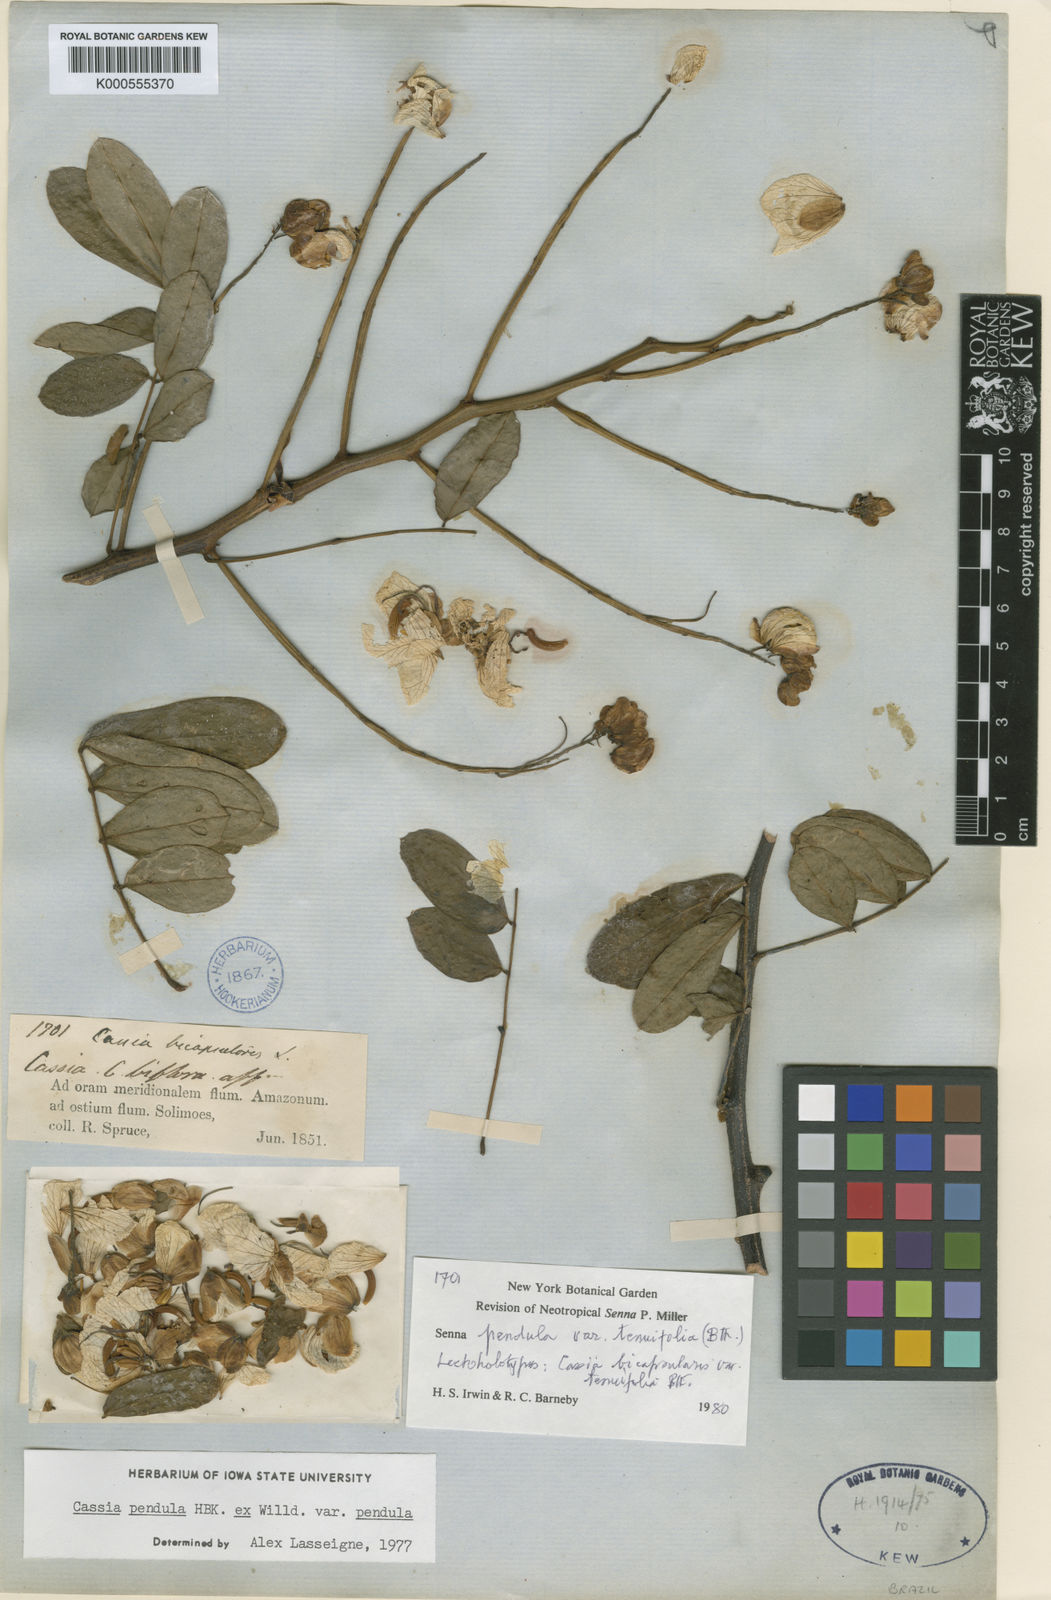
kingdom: Plantae
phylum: Tracheophyta
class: Magnoliopsida
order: Fabales
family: Fabaceae
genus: Senna
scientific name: Senna pendula
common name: Easter cassia
